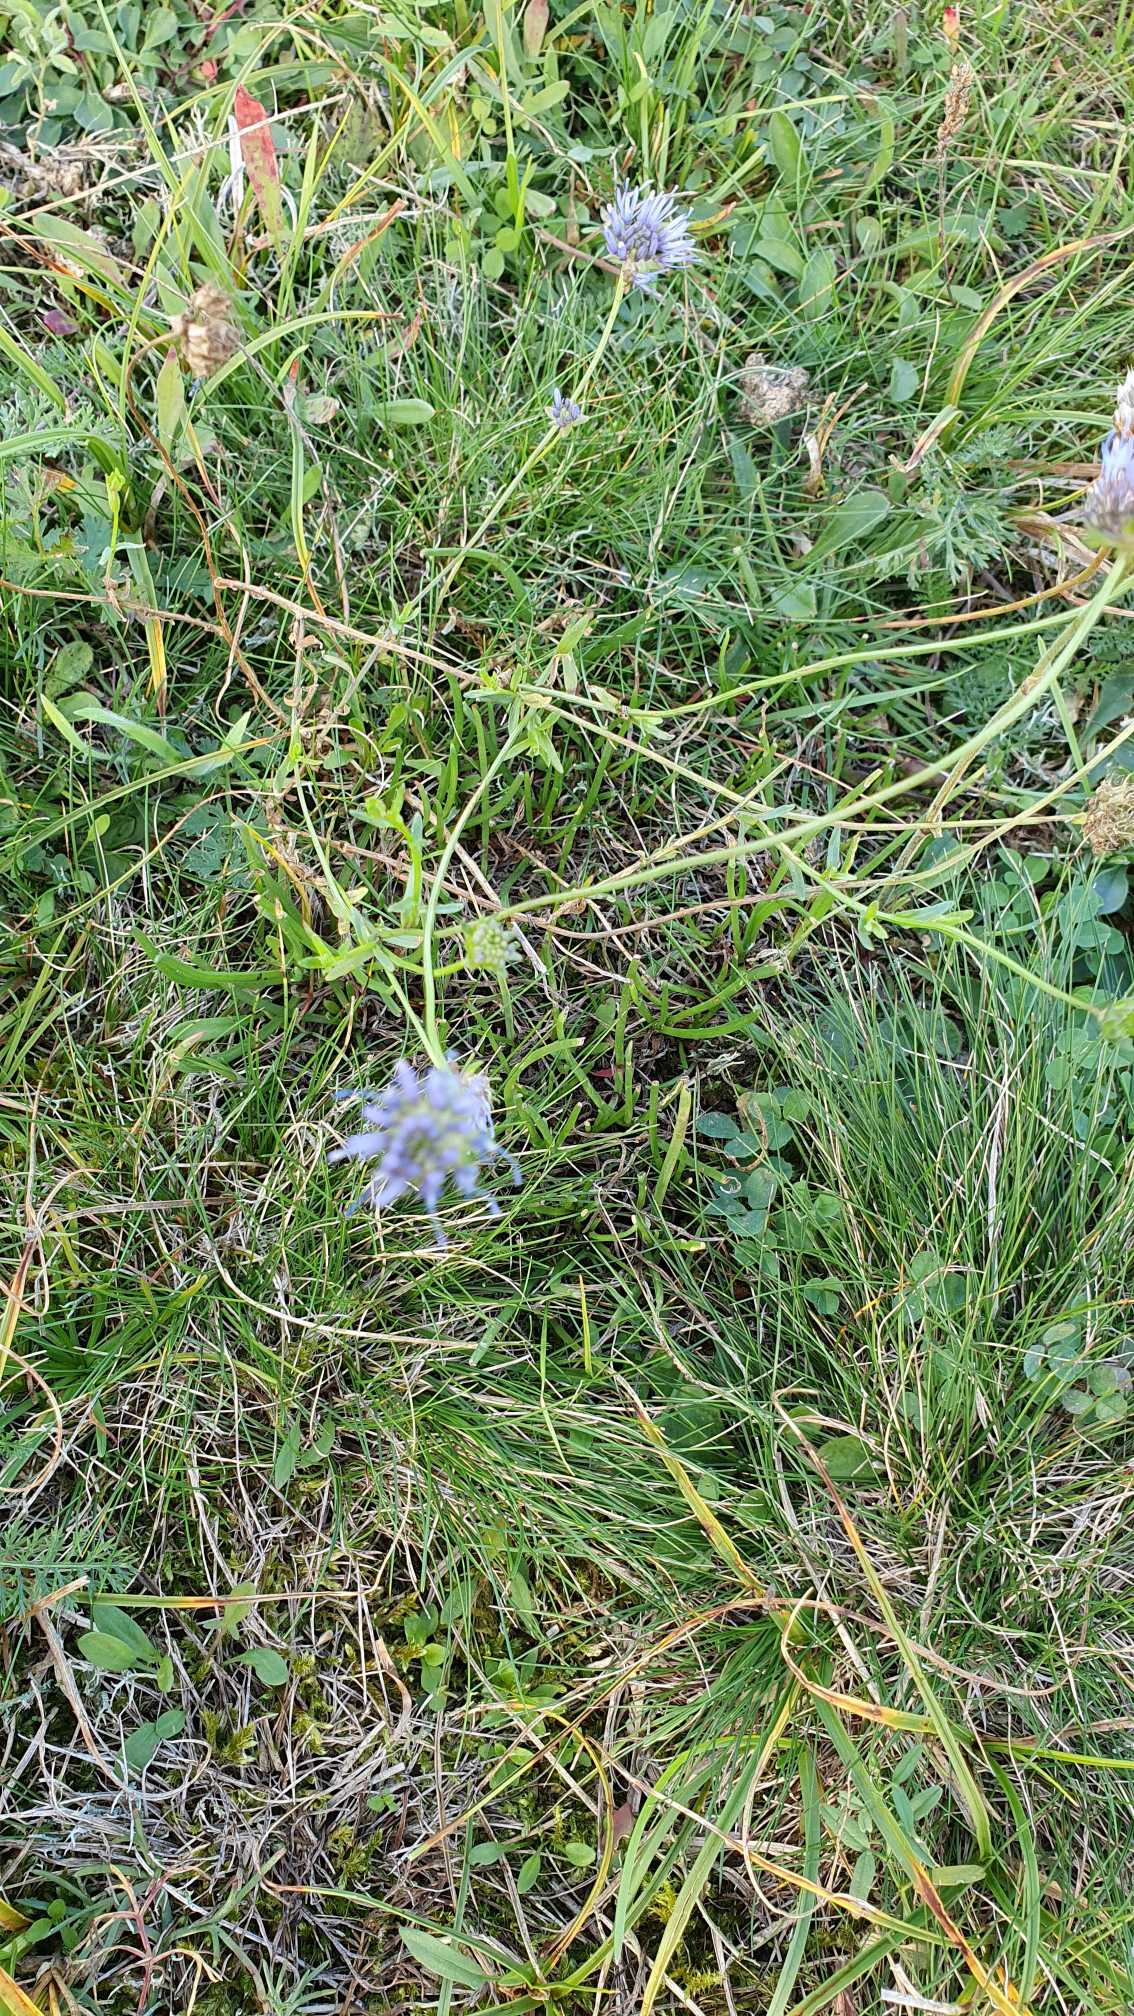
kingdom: Plantae
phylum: Tracheophyta
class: Magnoliopsida
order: Asterales
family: Campanulaceae
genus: Jasione
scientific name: Jasione montana
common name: Blåmunke
